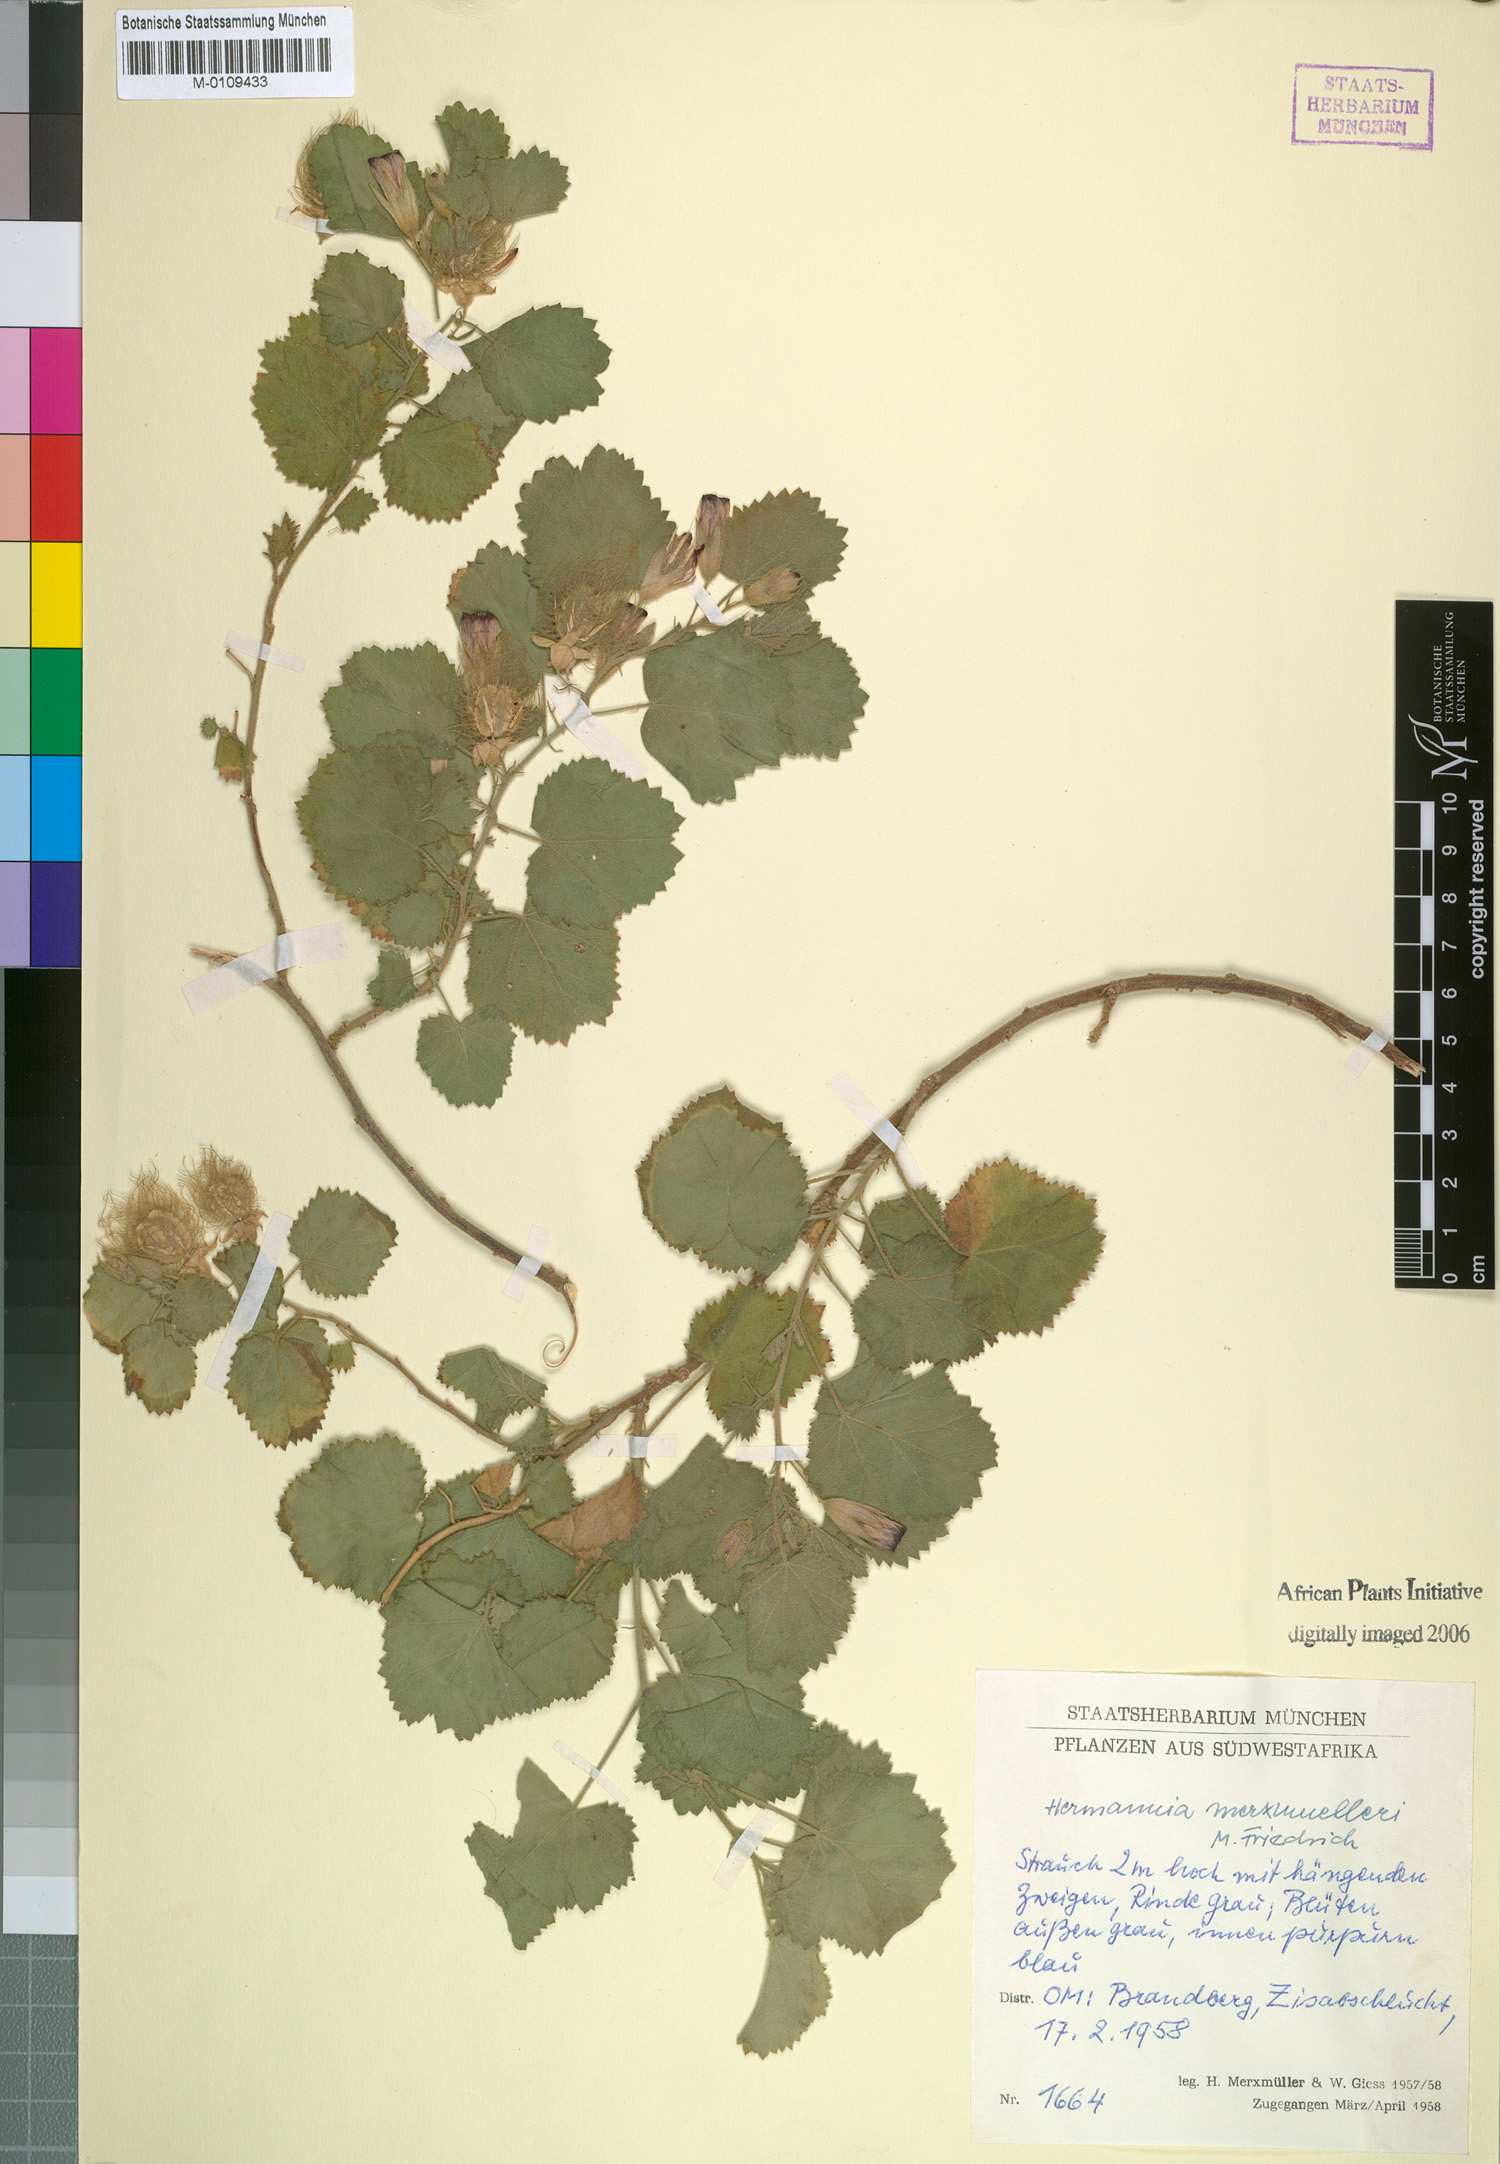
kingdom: Plantae
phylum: Tracheophyta
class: Magnoliopsida
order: Malvales
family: Malvaceae
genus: Hermannia
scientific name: Hermannia merxmuelleri
